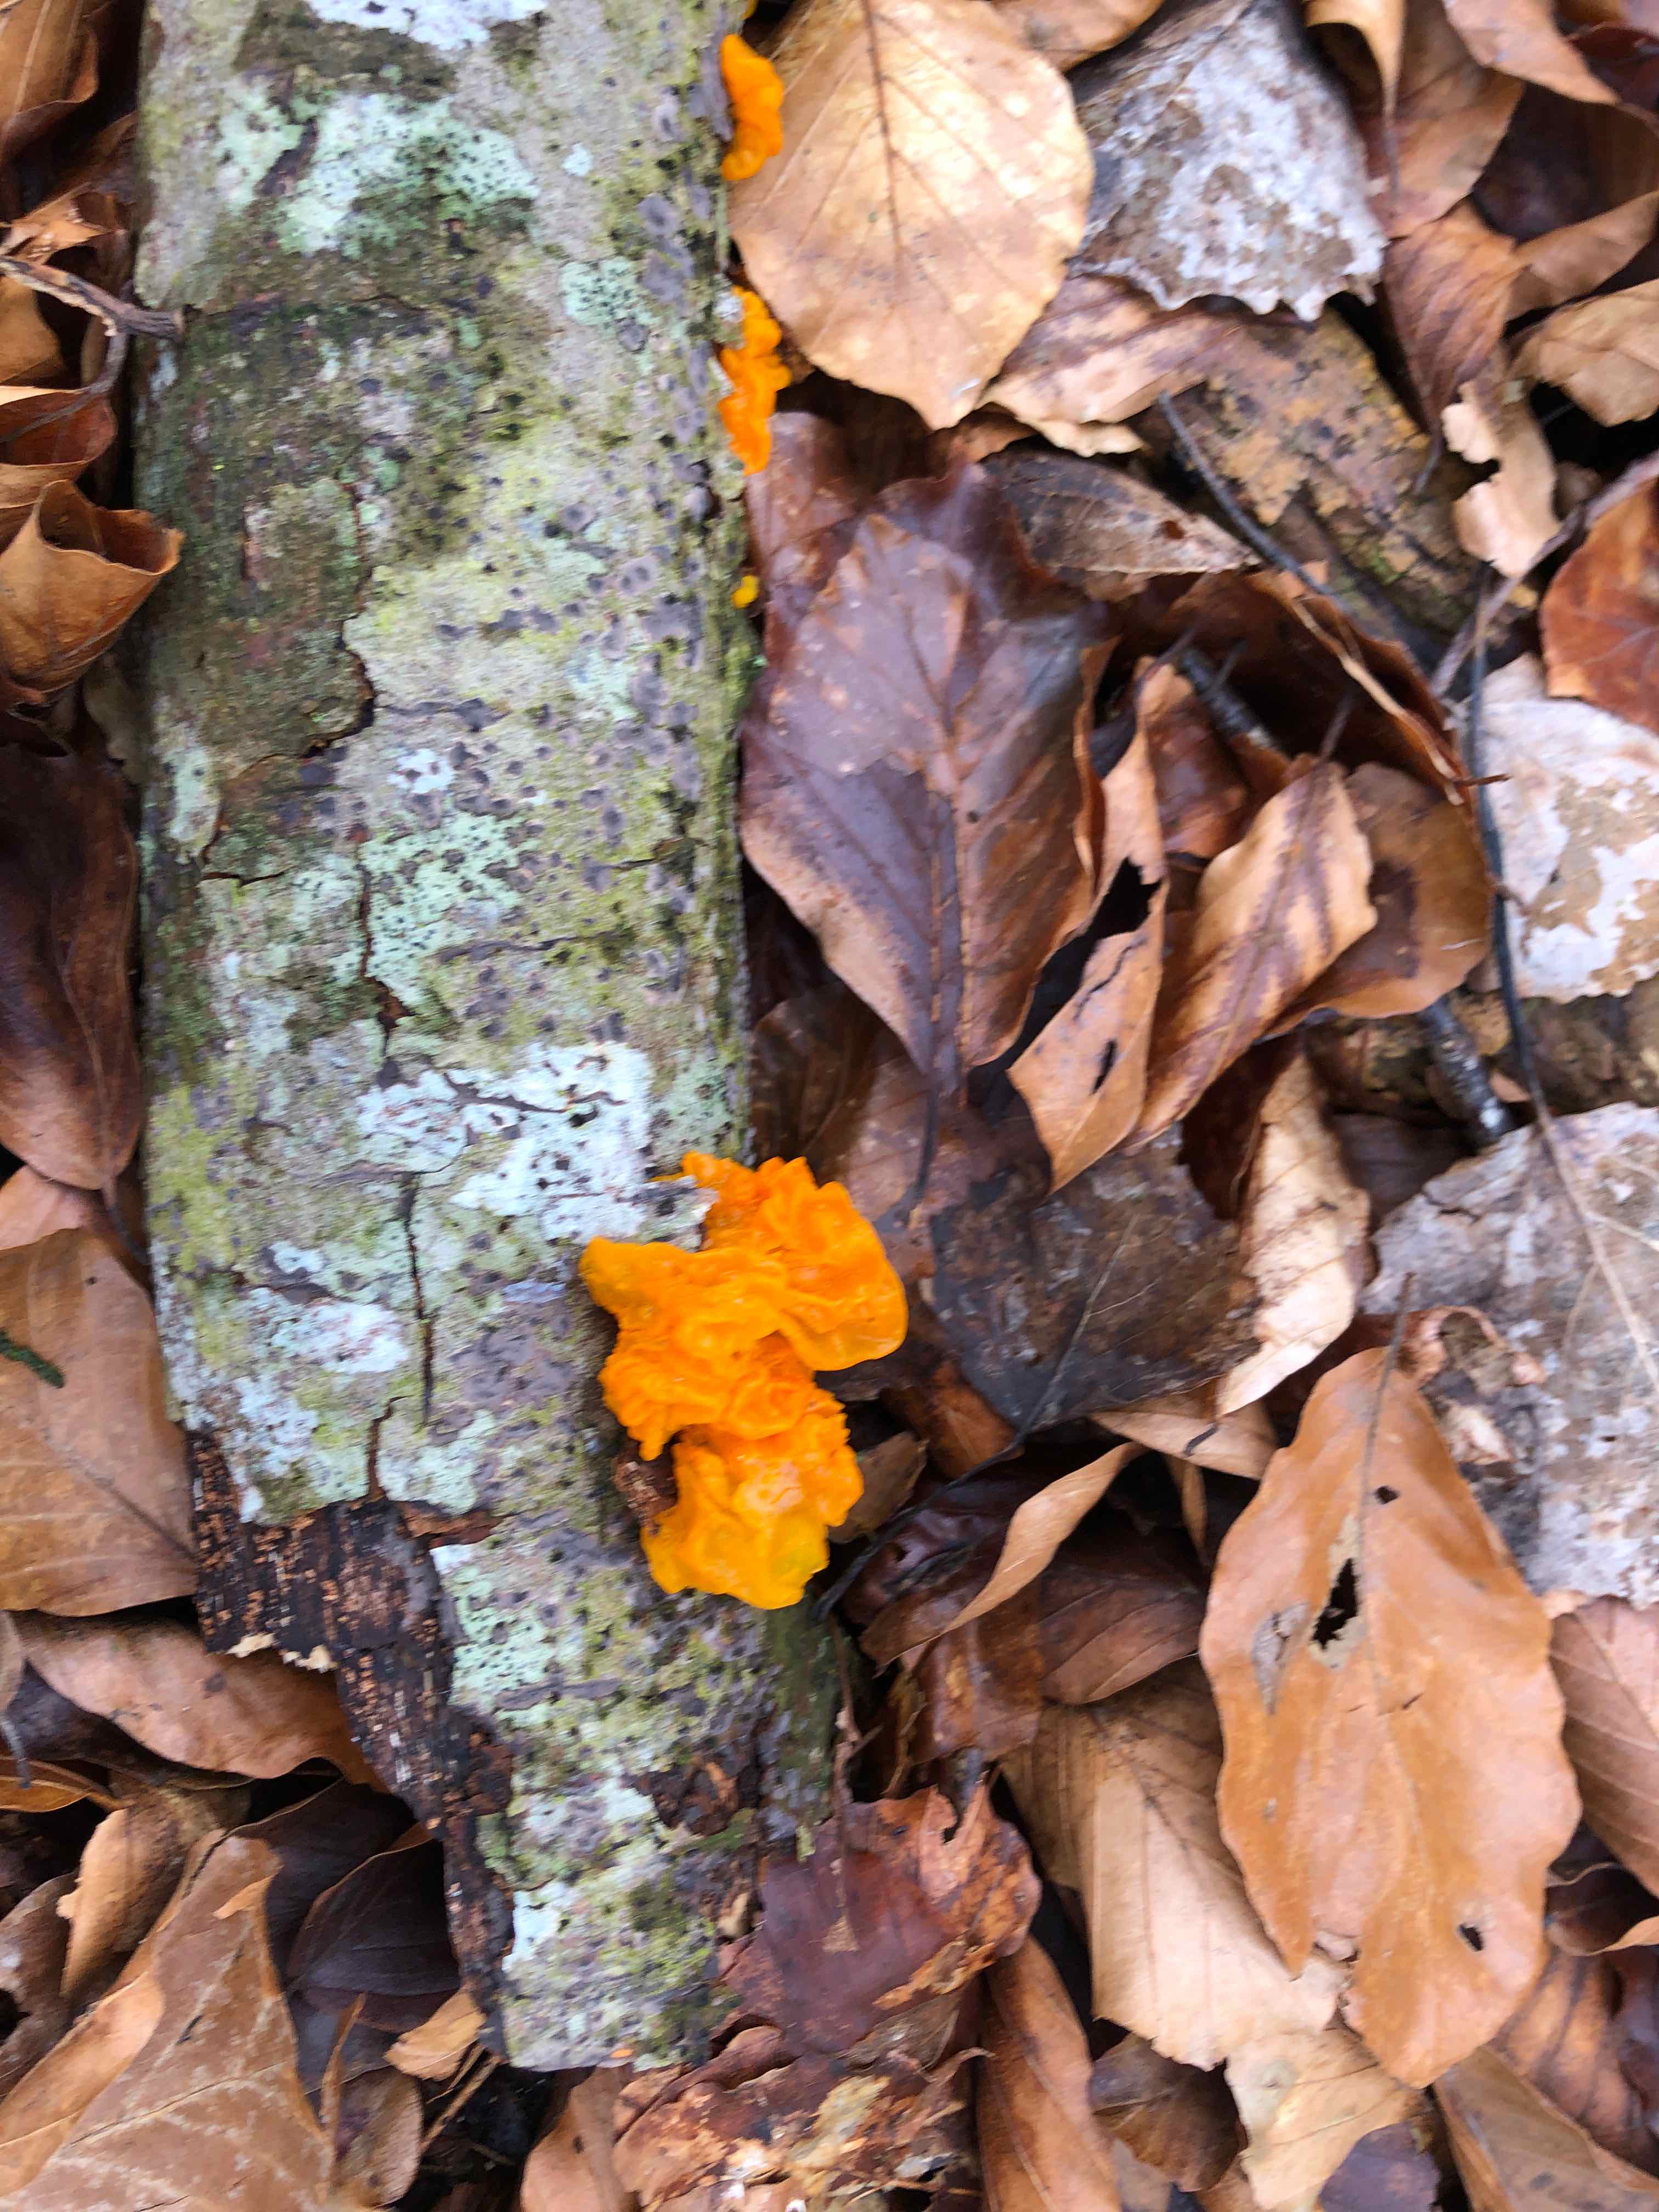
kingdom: Fungi
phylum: Basidiomycota
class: Tremellomycetes
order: Tremellales
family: Tremellaceae
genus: Tremella
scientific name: Tremella mesenterica
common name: gul bævresvamp
